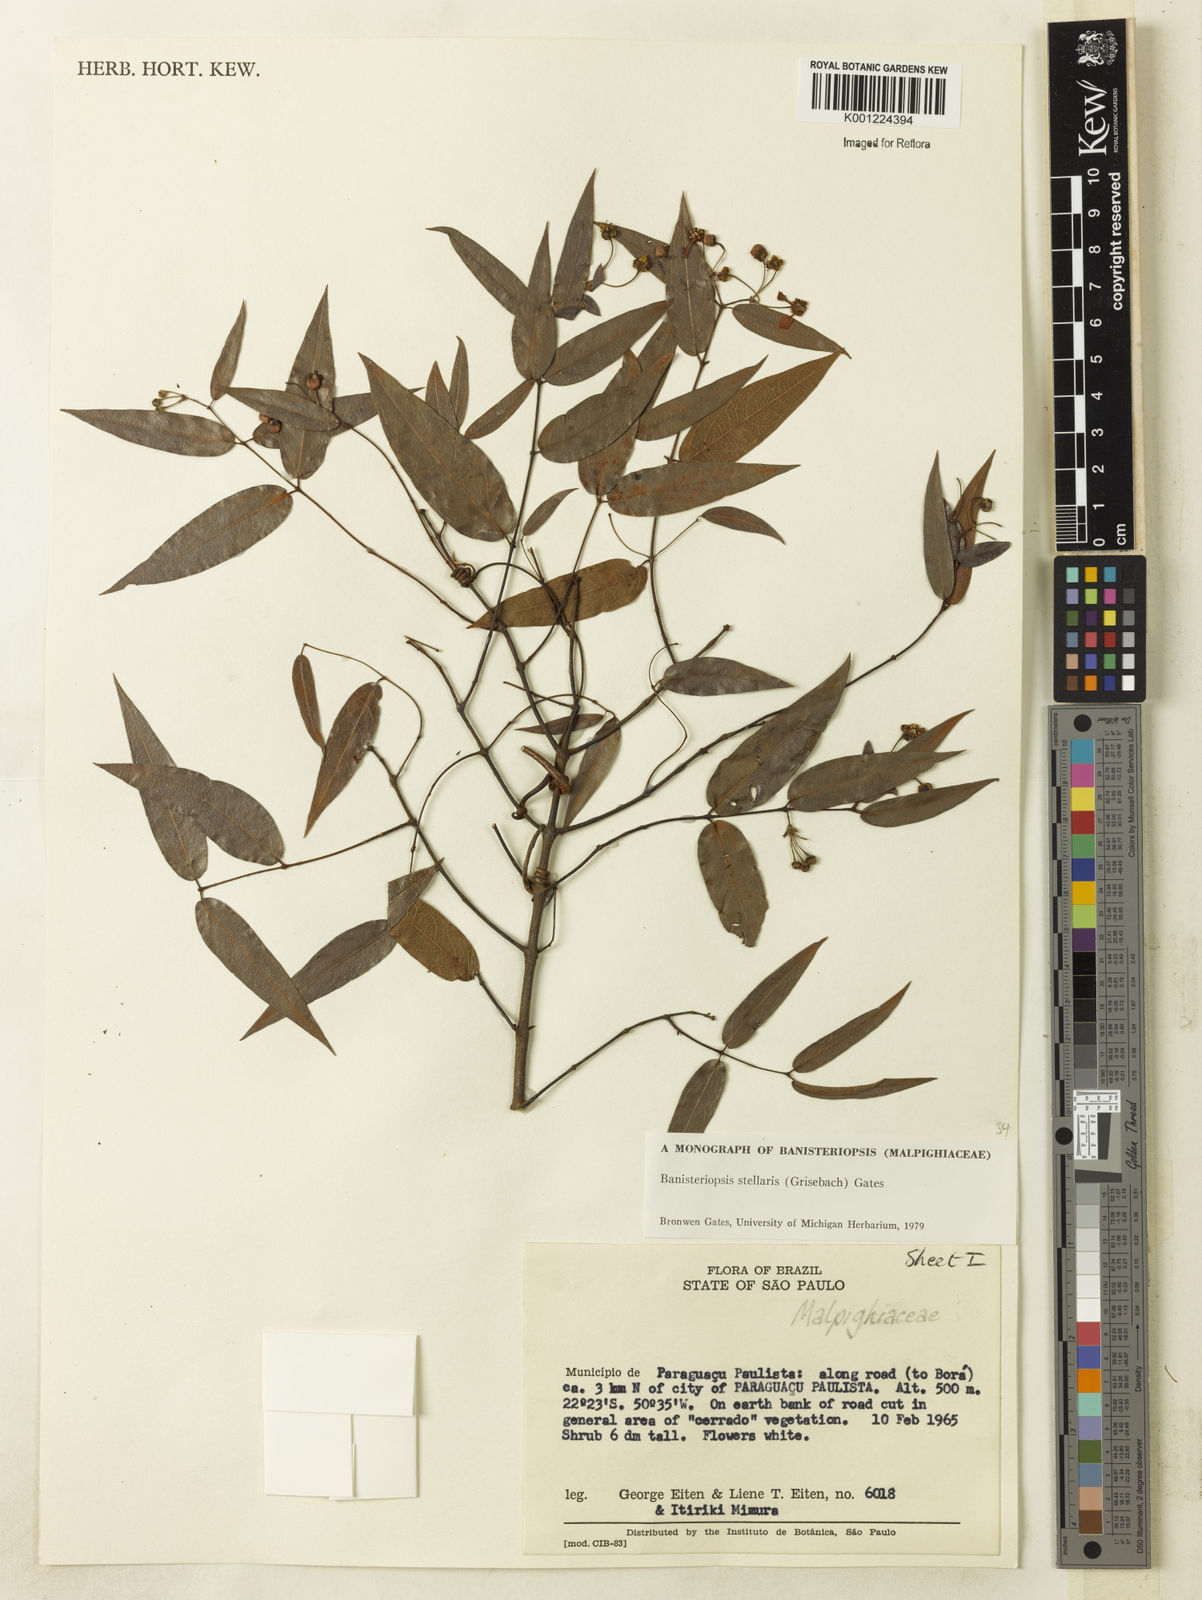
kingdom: Plantae
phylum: Tracheophyta
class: Magnoliopsida
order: Malpighiales
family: Malpighiaceae
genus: Banisteriopsis
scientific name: Banisteriopsis stellaris
